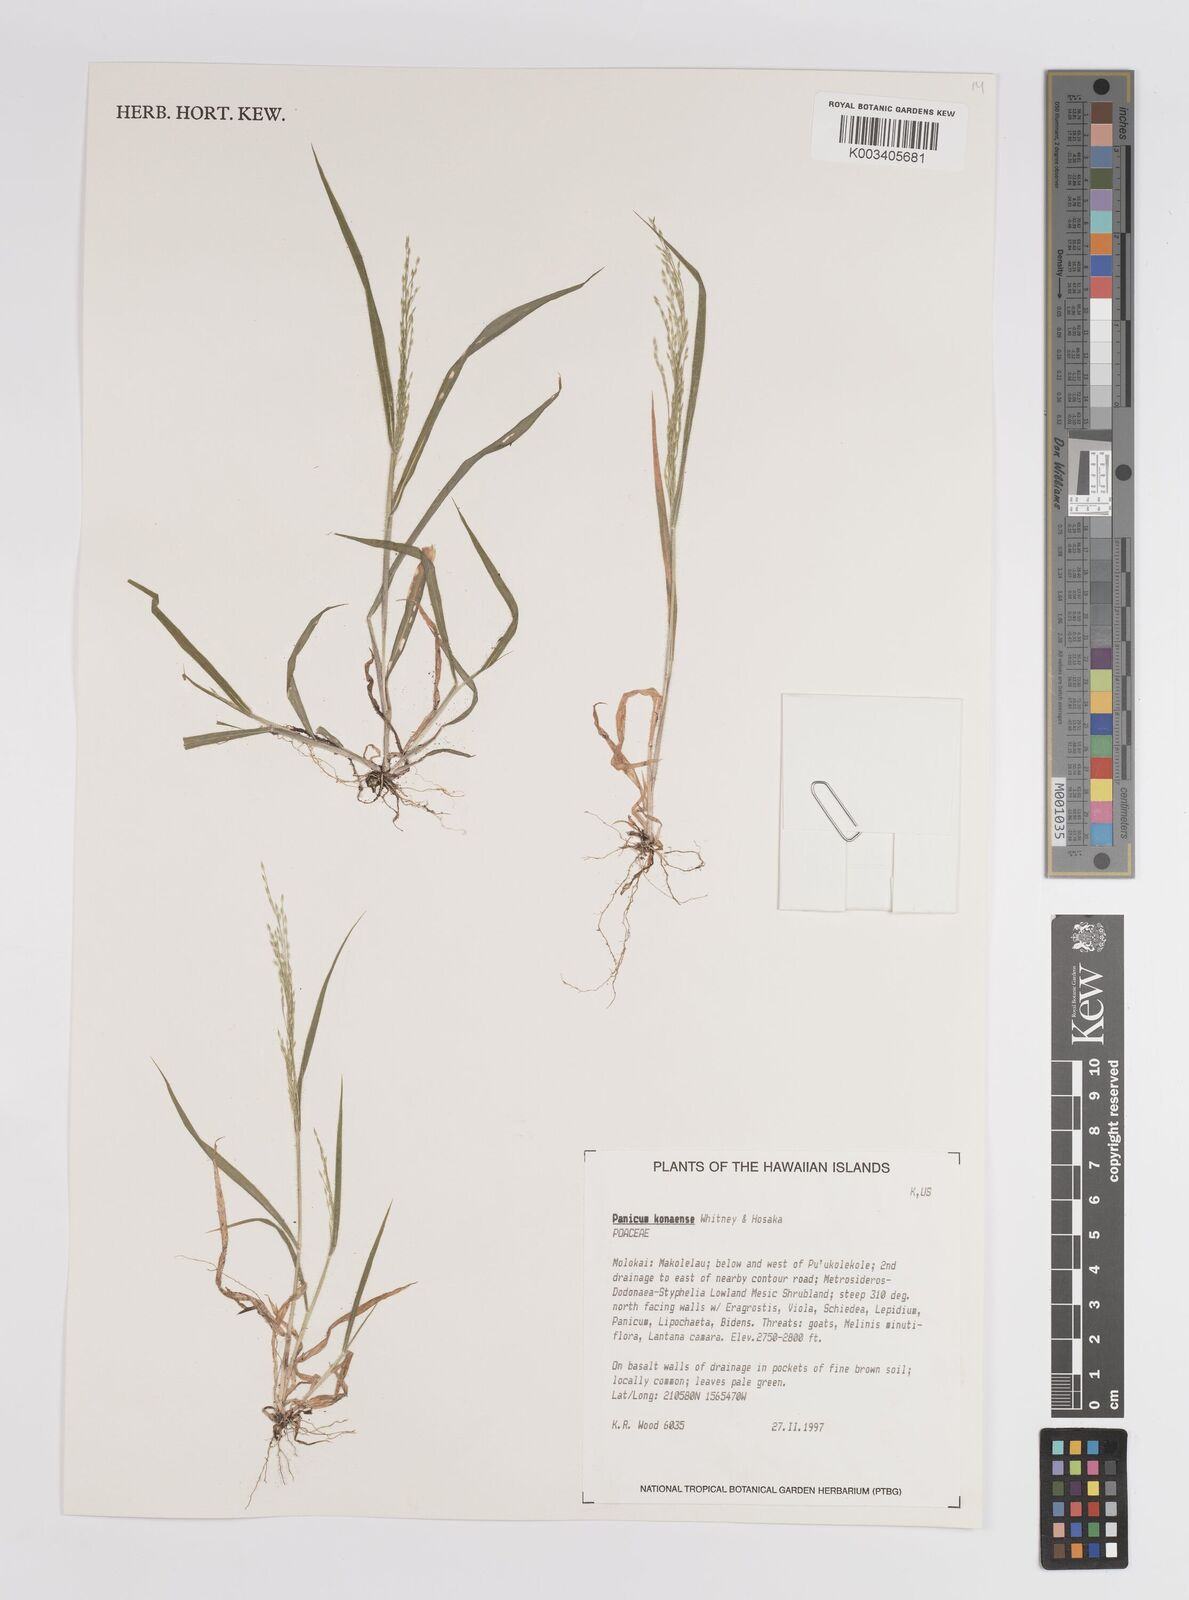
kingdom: Plantae
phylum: Tracheophyta
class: Liliopsida
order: Poales
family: Poaceae
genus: Panicum
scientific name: Panicum konaense
